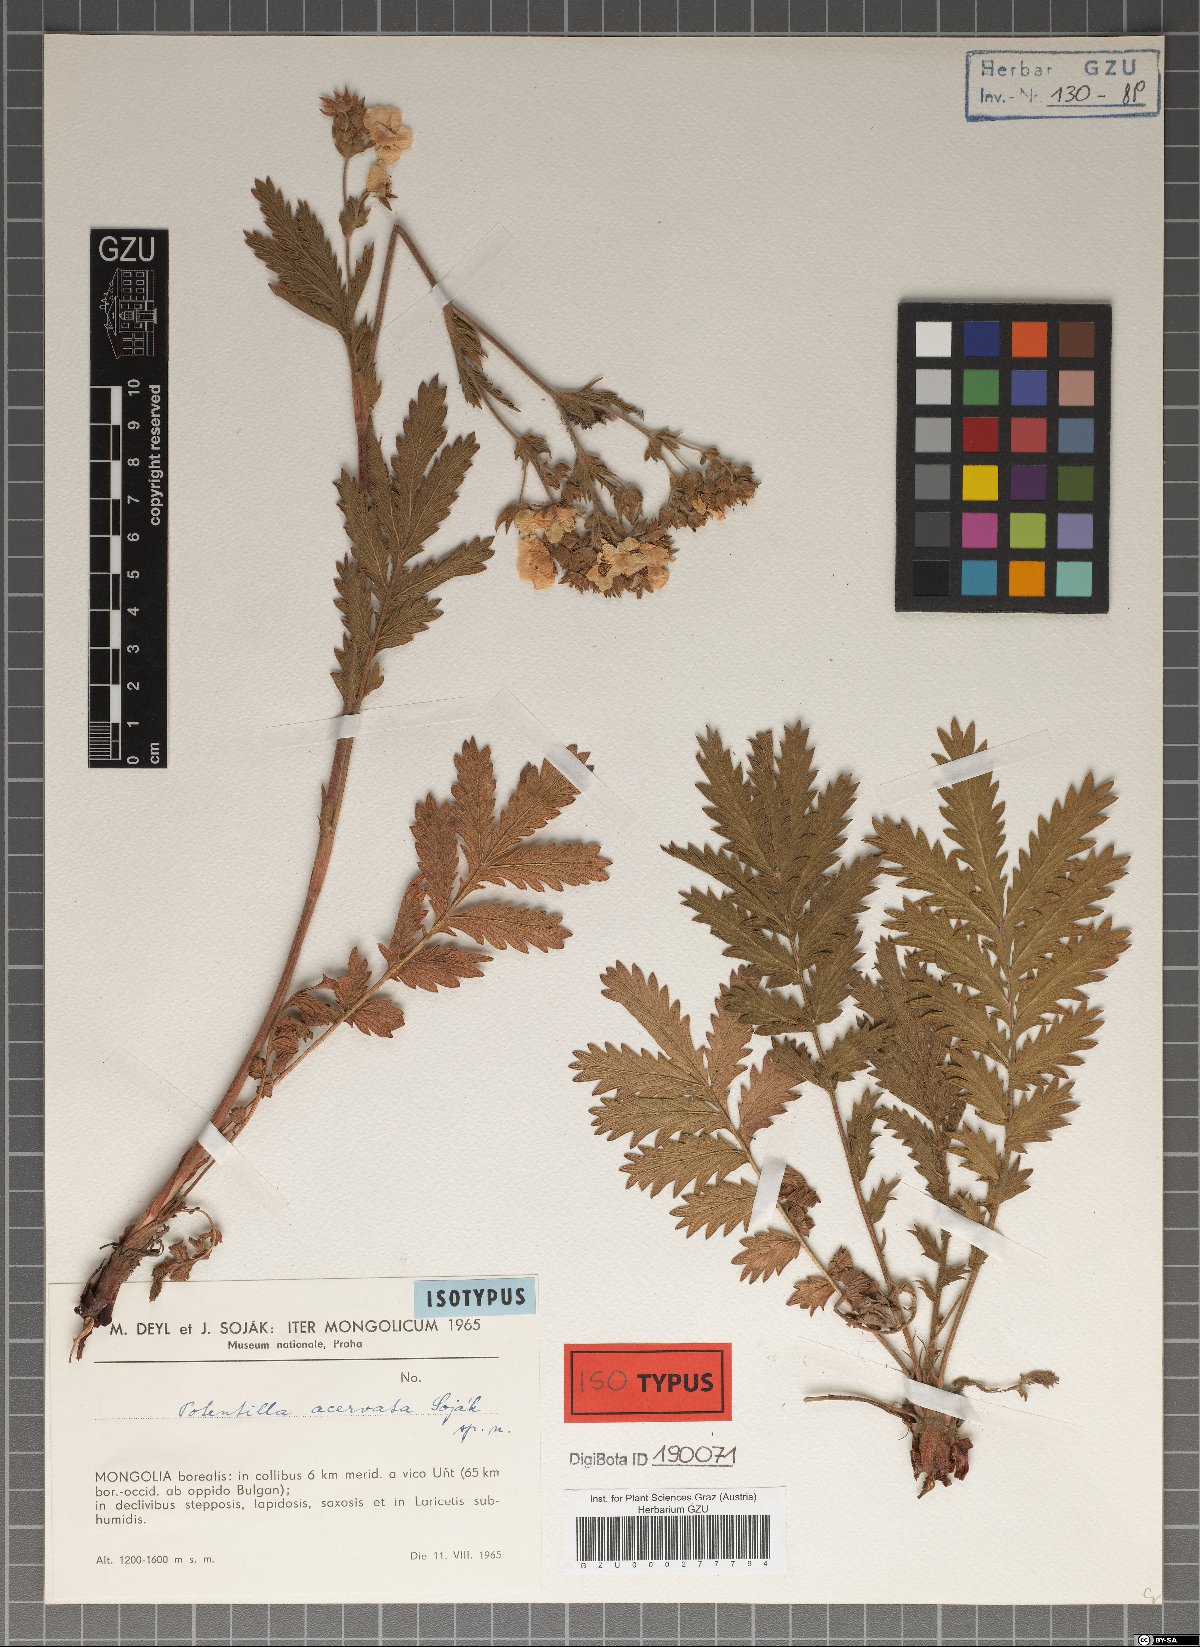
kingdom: Plantae
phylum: Tracheophyta
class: Magnoliopsida
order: Rosales
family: Rosaceae
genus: Potentilla
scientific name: Potentilla tanacetifolia
